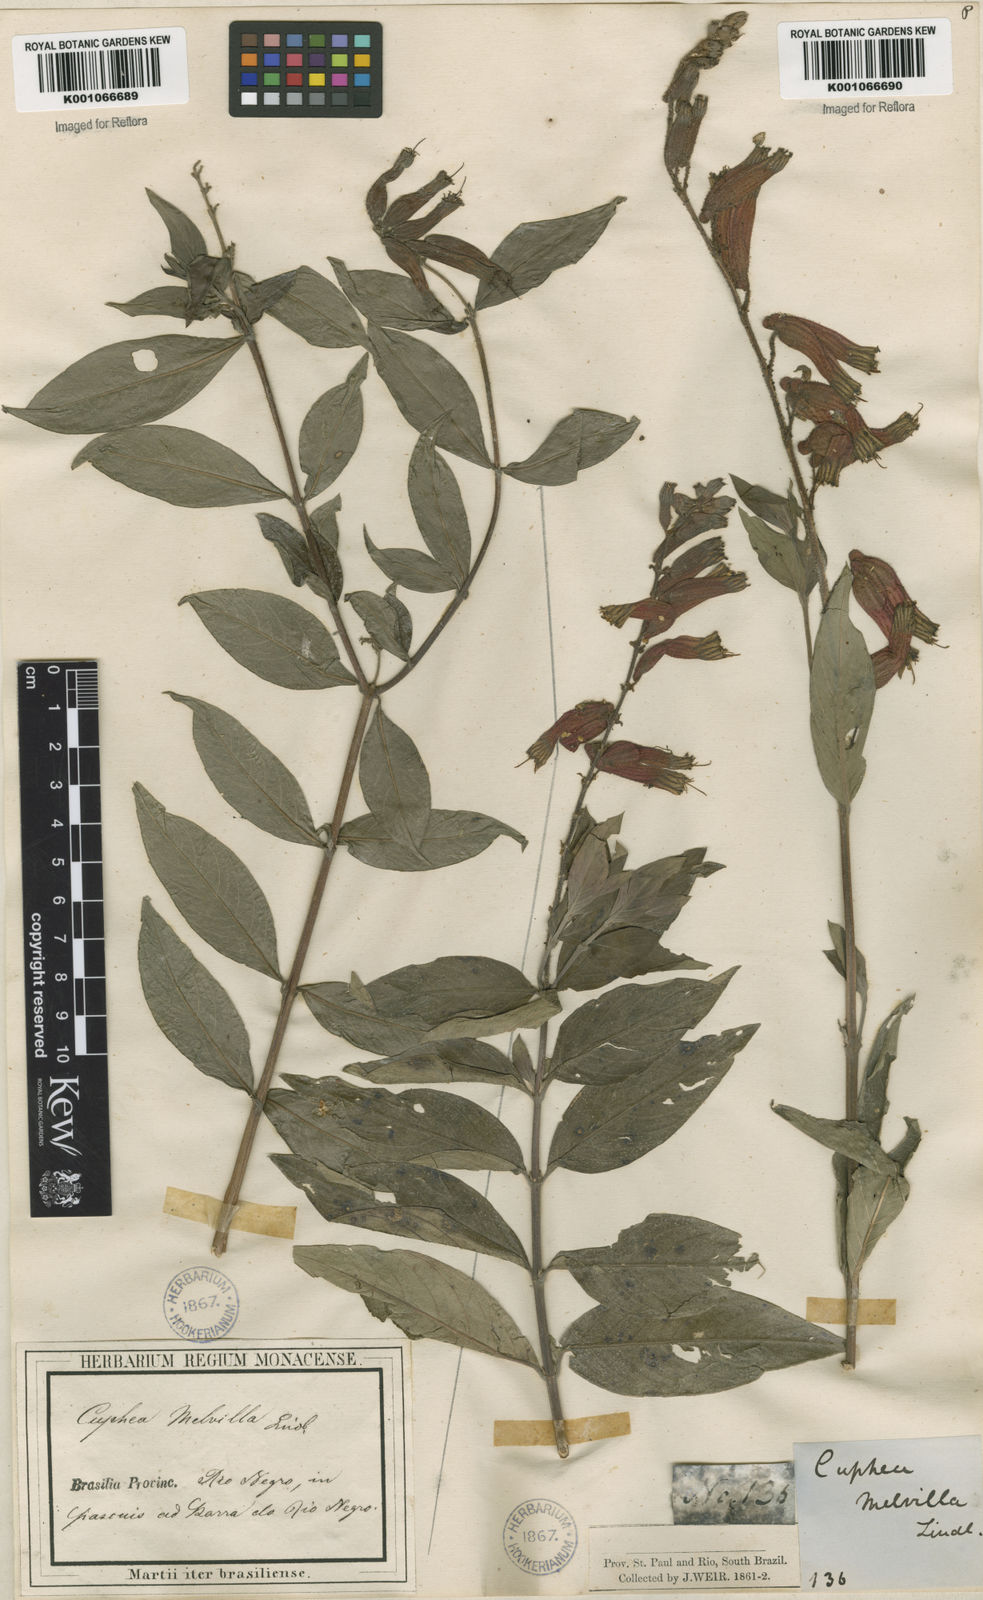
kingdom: Plantae
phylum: Tracheophyta
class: Magnoliopsida
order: Myrtales
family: Lythraceae
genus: Cuphea
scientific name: Cuphea melvilla
